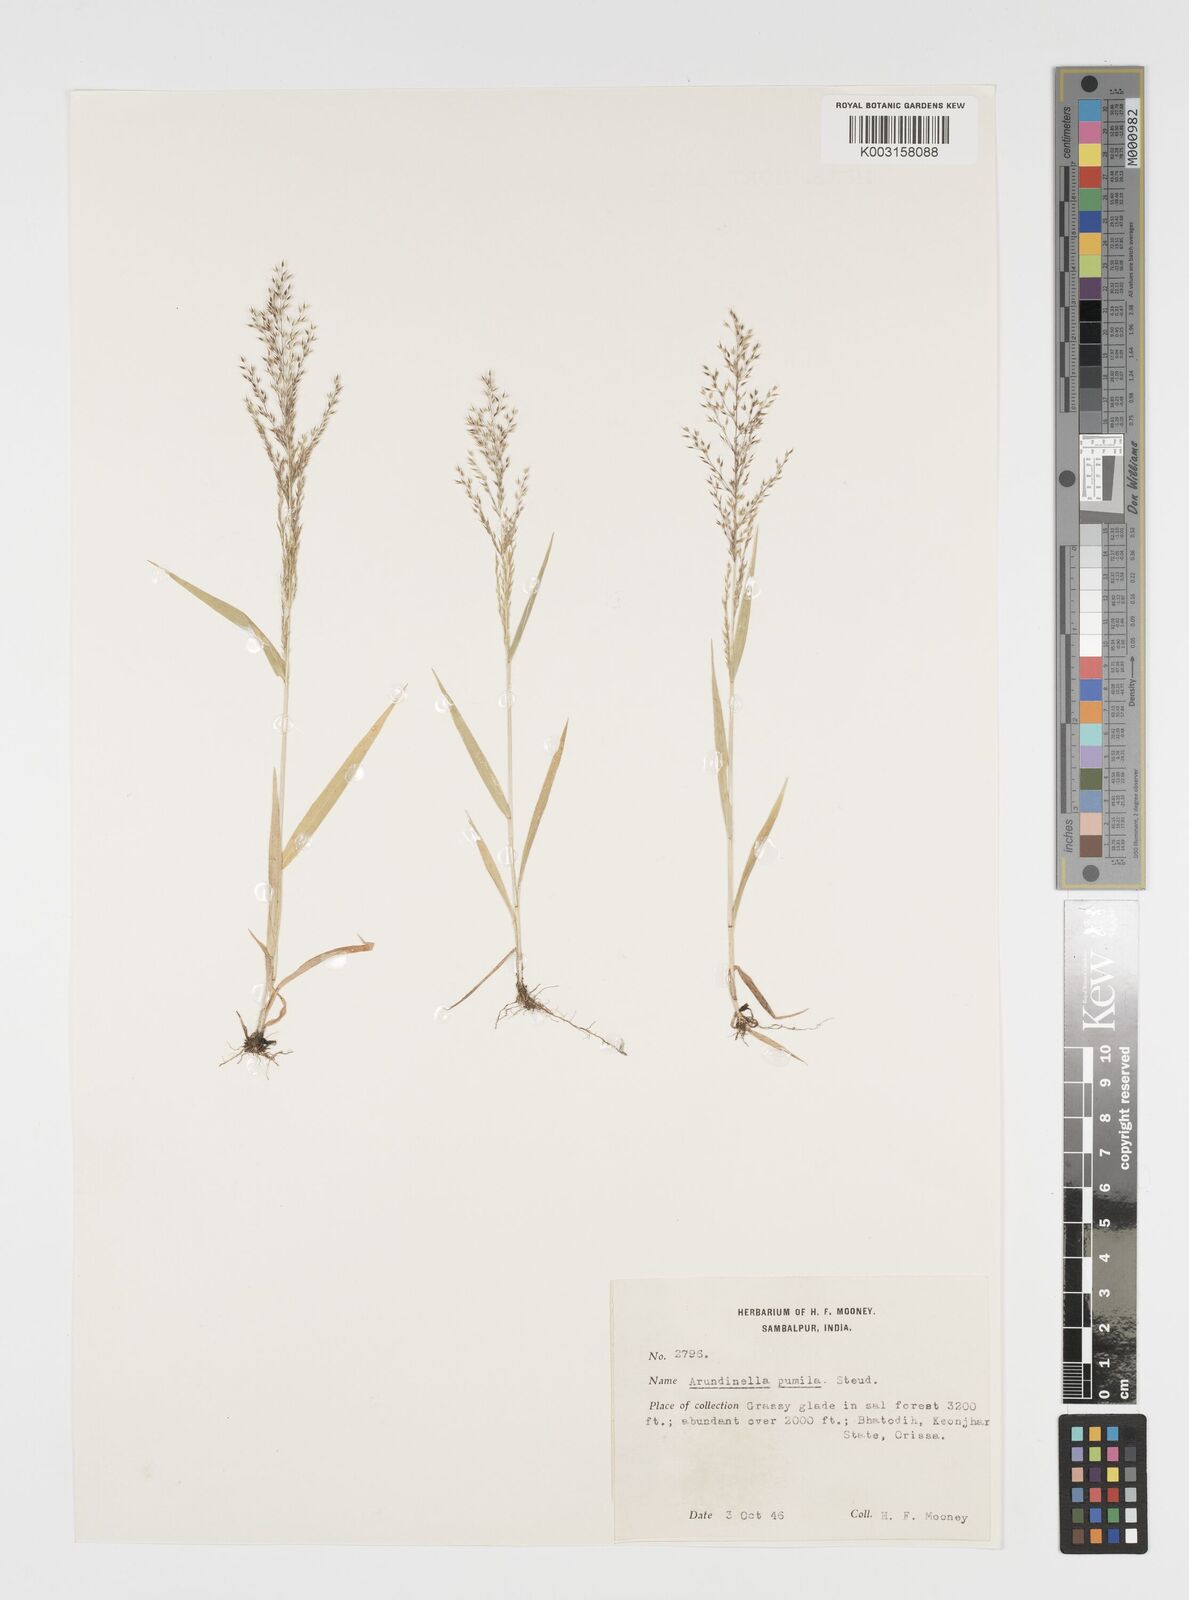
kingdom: Plantae
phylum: Tracheophyta
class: Liliopsida
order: Poales
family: Poaceae
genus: Arundinella
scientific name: Arundinella pumila
